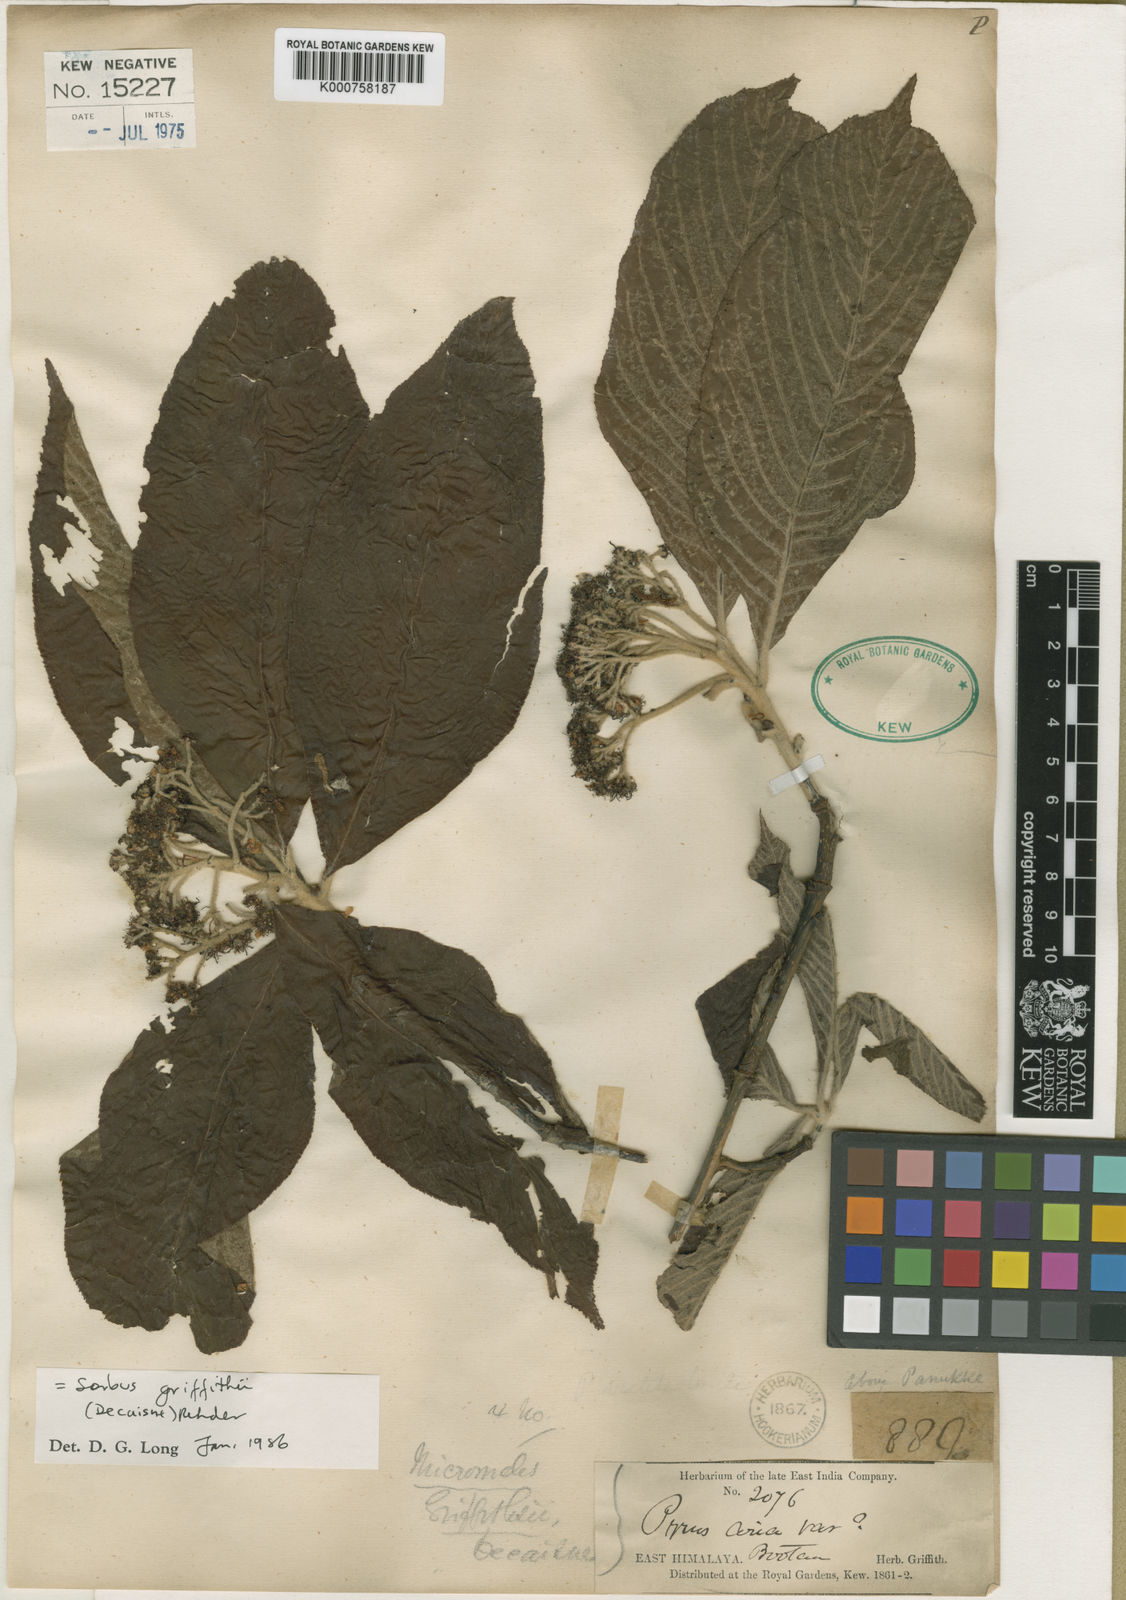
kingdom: Plantae
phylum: Tracheophyta
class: Magnoliopsida
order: Rosales
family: Rosaceae
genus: Micromeles
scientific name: Micromeles griffithii
